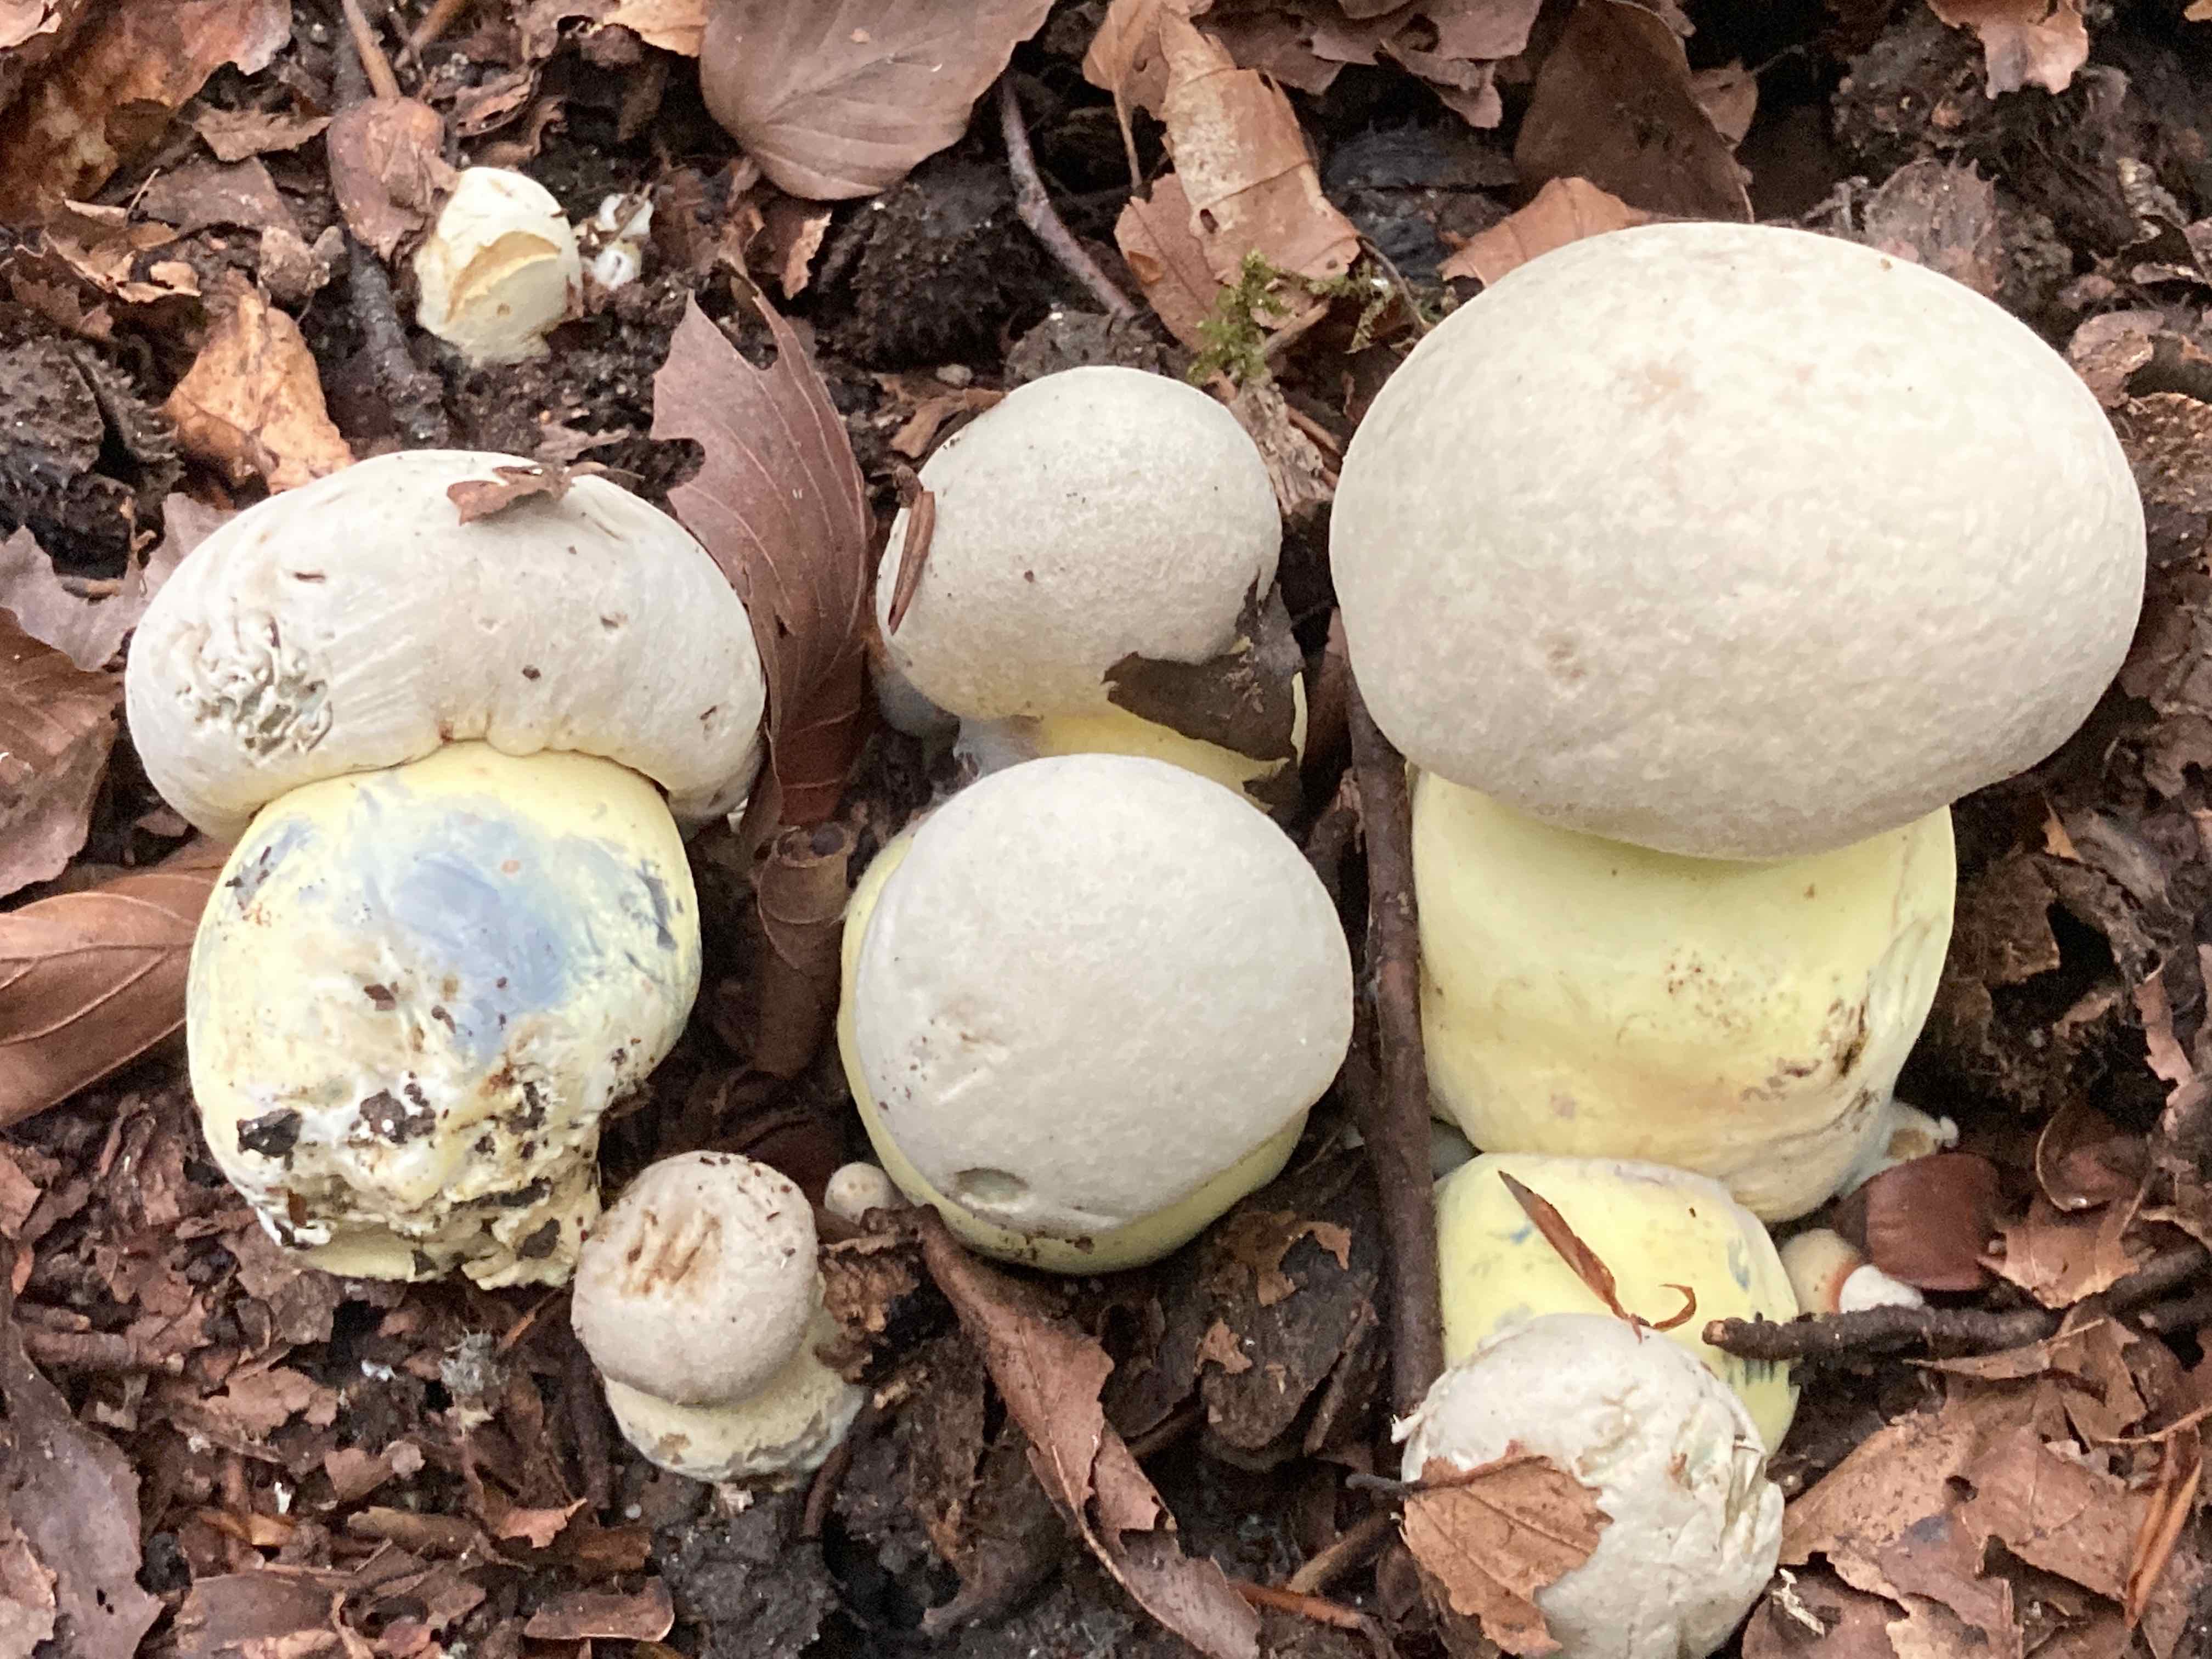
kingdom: Fungi
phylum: Basidiomycota
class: Agaricomycetes
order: Boletales
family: Boletaceae
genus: Caloboletus
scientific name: Caloboletus radicans
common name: rod-rørhat
